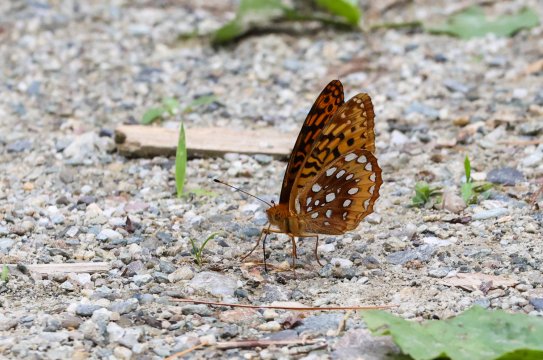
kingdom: Animalia
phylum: Arthropoda
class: Insecta
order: Lepidoptera
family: Nymphalidae
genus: Speyeria
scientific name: Speyeria cybele
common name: Great Spangled Fritillary
